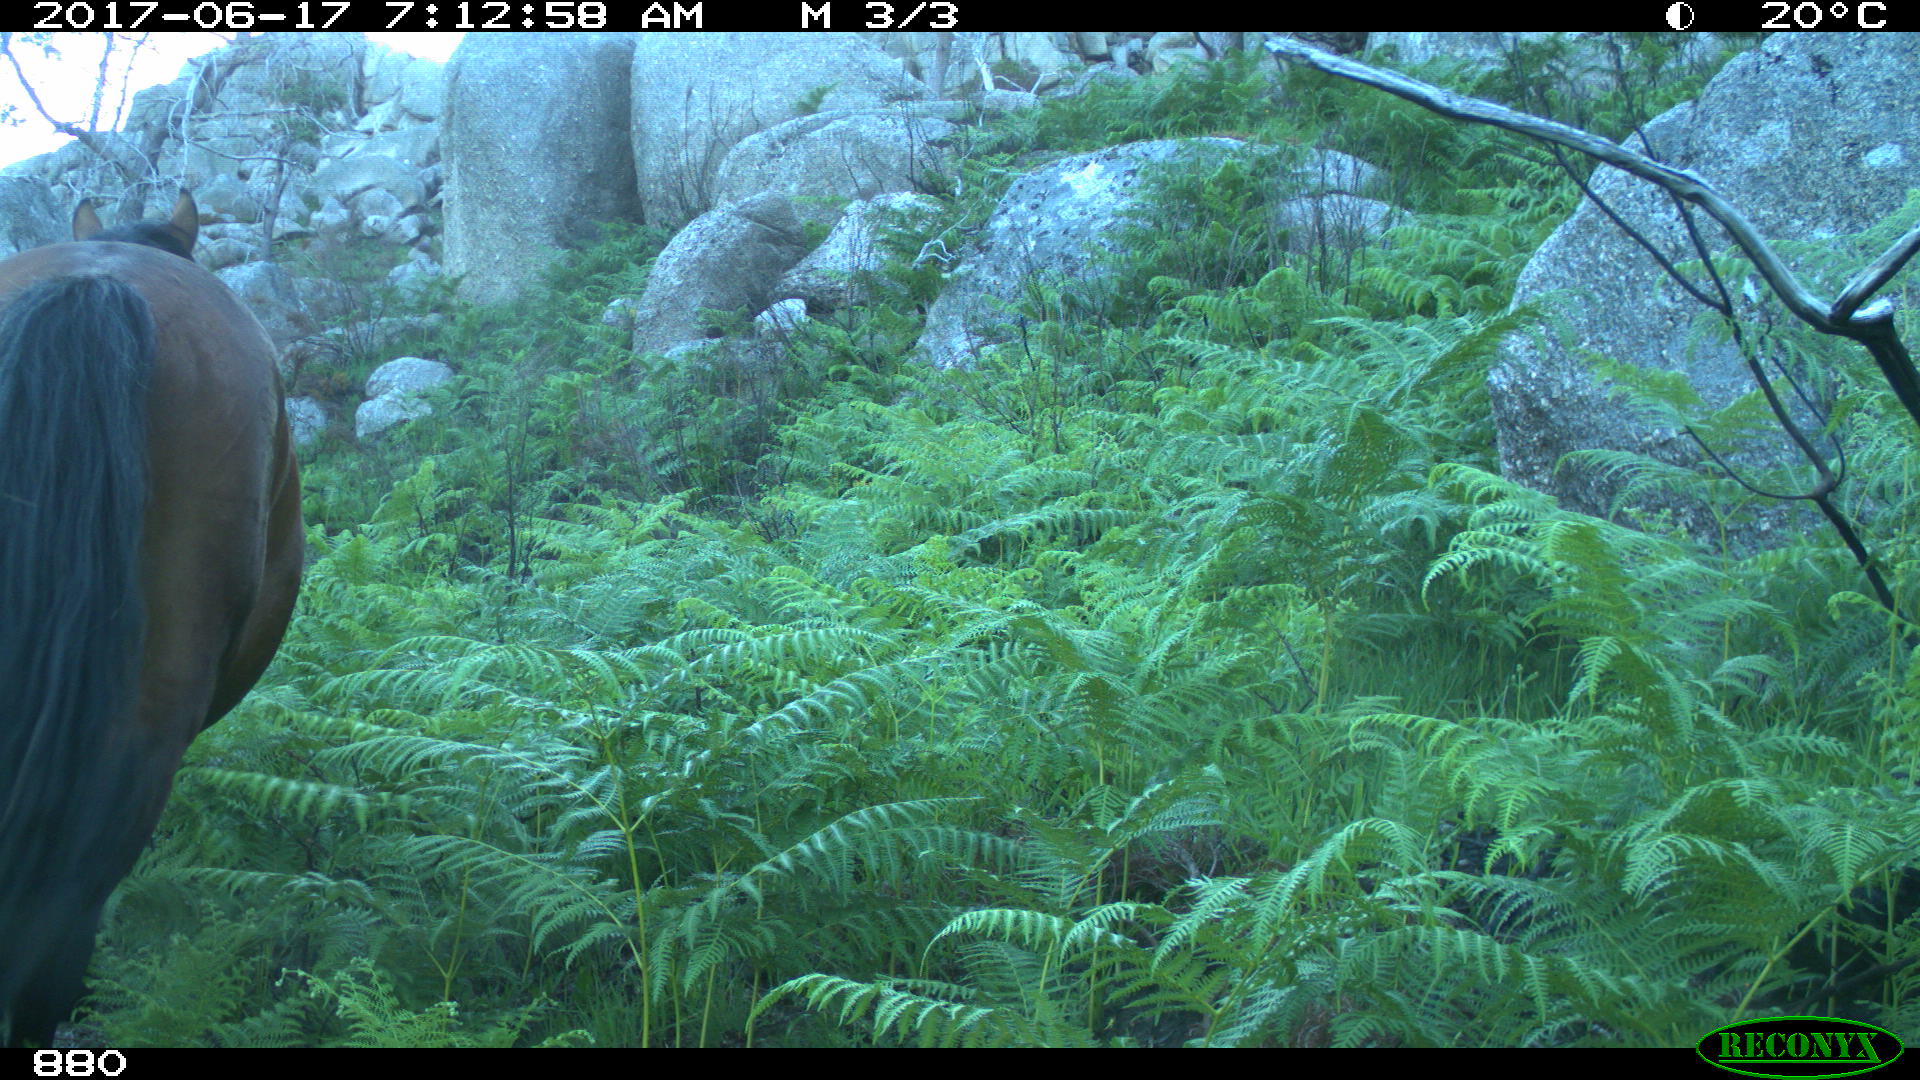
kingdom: Animalia
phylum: Chordata
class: Mammalia
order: Perissodactyla
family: Equidae
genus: Equus
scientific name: Equus caballus
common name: Horse
